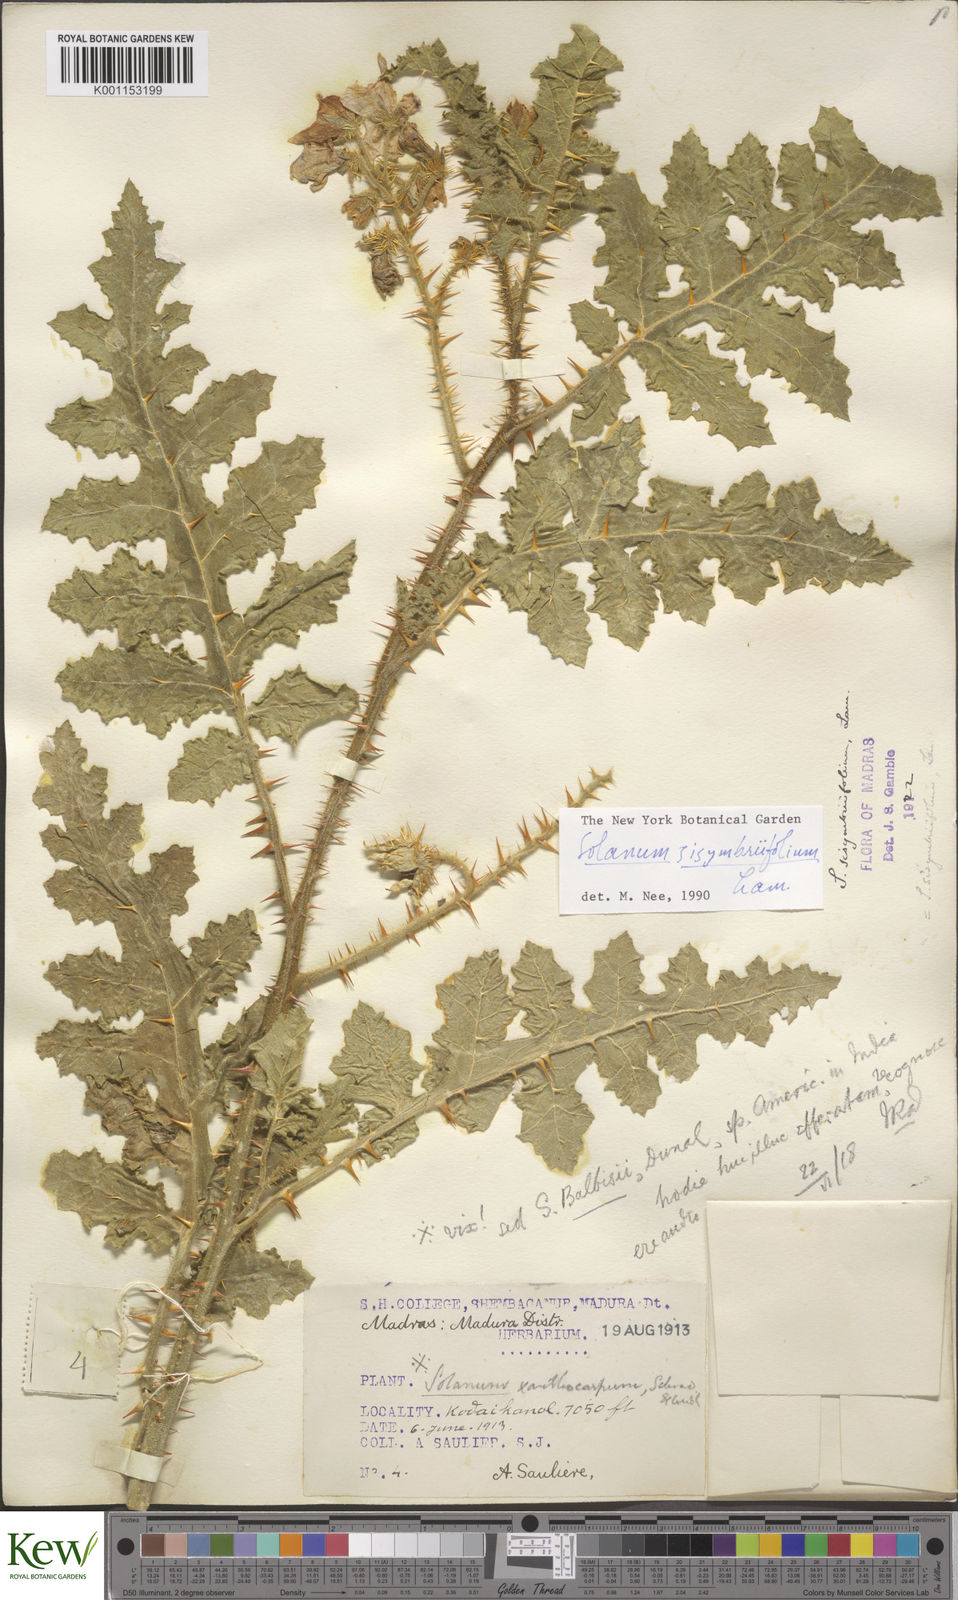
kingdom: Plantae
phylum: Tracheophyta
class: Magnoliopsida
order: Solanales
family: Solanaceae
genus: Solanum
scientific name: Solanum sisymbriifolium
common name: Red buffalo-bur
